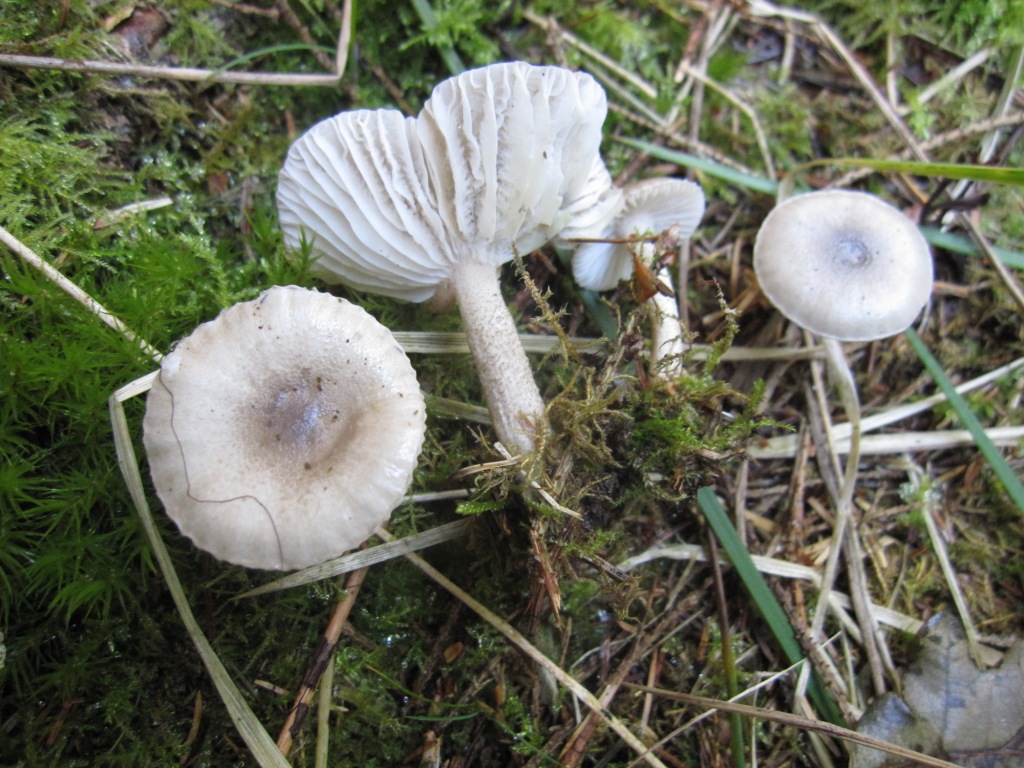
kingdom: Fungi
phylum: Basidiomycota
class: Agaricomycetes
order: Agaricales
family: Hygrophoraceae
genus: Hygrophorus
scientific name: Hygrophorus pustulatus
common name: mørkprikket sneglehat
